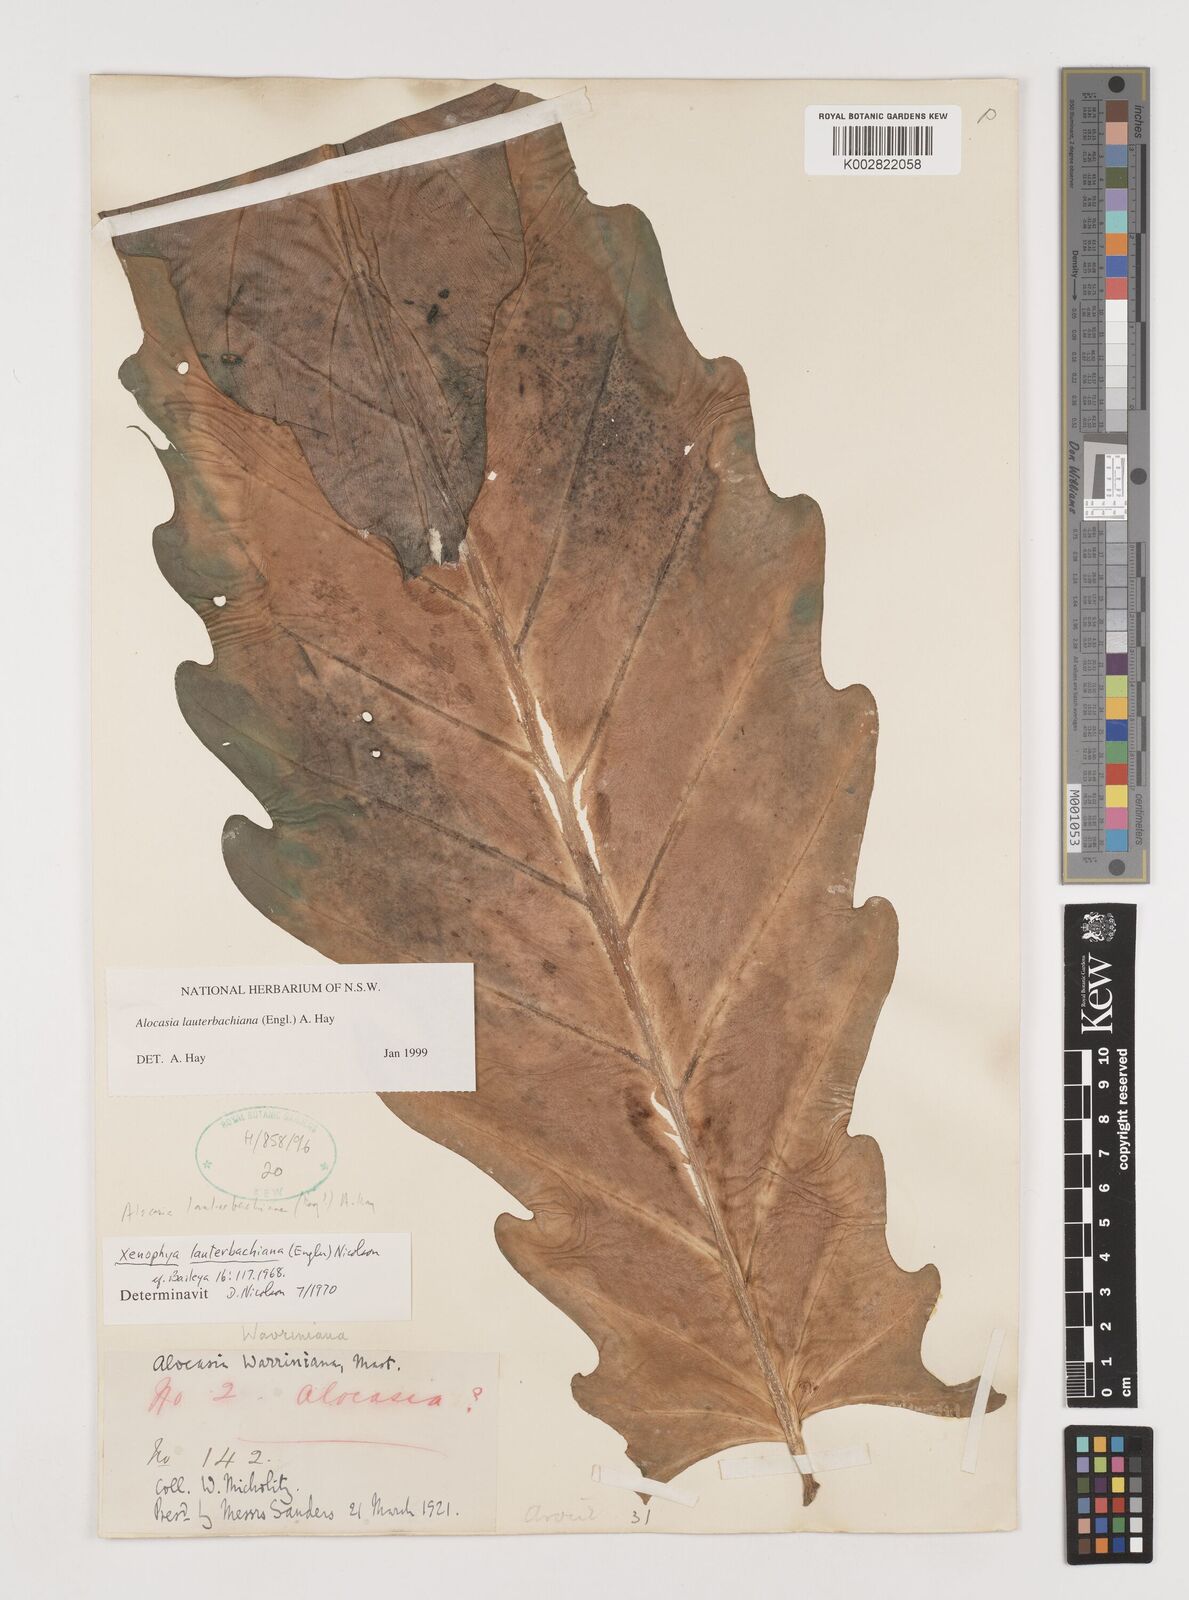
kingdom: Plantae
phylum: Tracheophyta
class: Liliopsida
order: Alismatales
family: Araceae
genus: Alocasia
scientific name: Alocasia lauterbachiana
